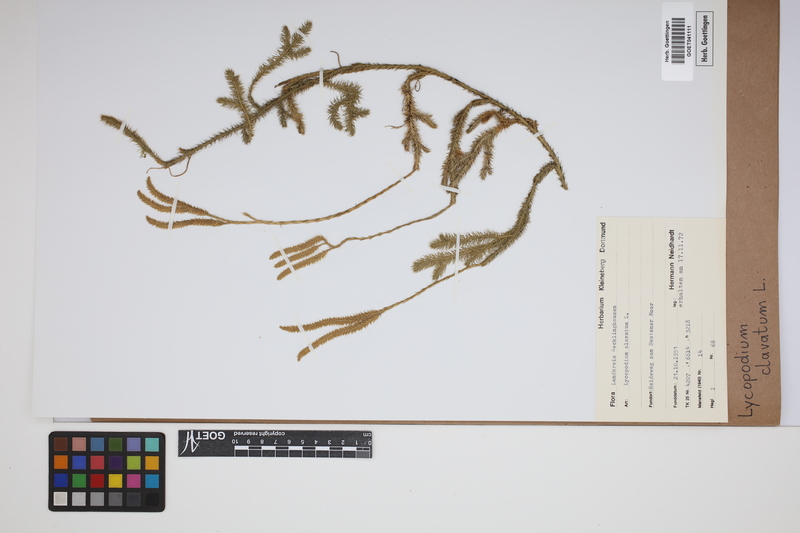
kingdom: Plantae
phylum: Tracheophyta
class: Lycopodiopsida
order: Lycopodiales
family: Lycopodiaceae
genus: Lycopodium
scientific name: Lycopodium clavatum
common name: Stag's-horn clubmoss
